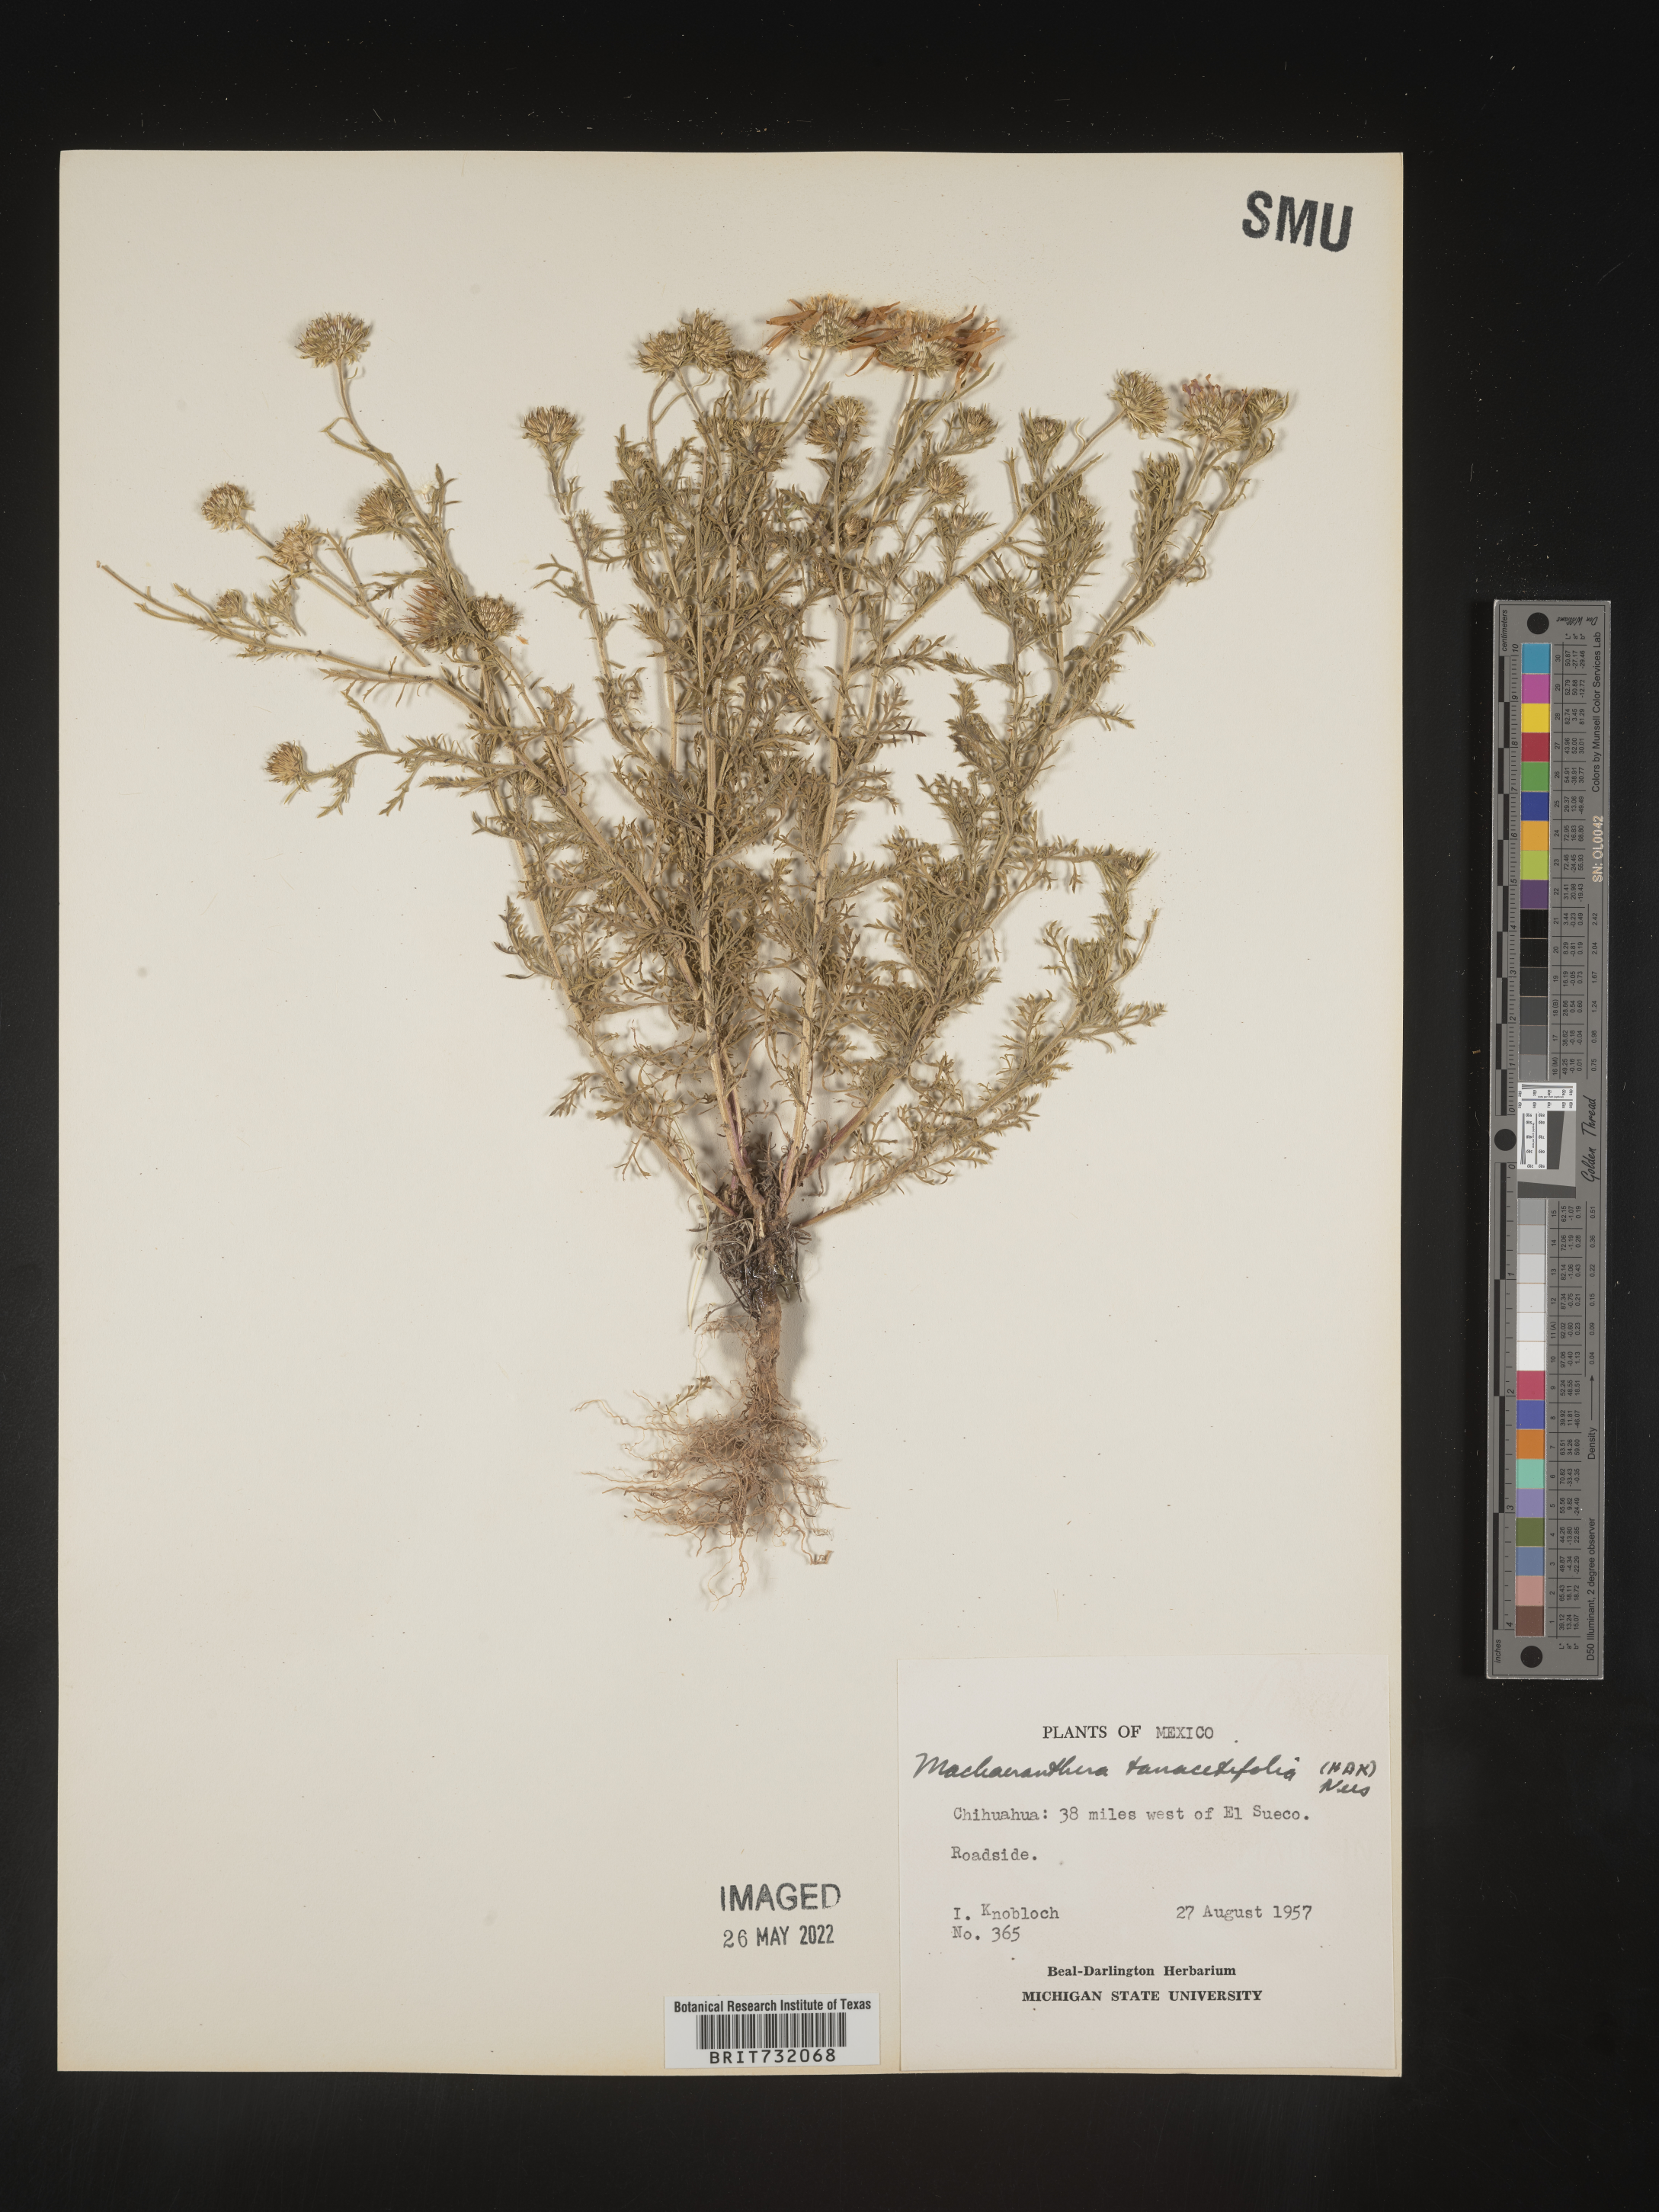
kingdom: Plantae
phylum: Tracheophyta
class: Magnoliopsida
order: Asterales
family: Asteraceae
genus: Machaeranthera
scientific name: Machaeranthera tanacetifolia
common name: Tansy-aster
